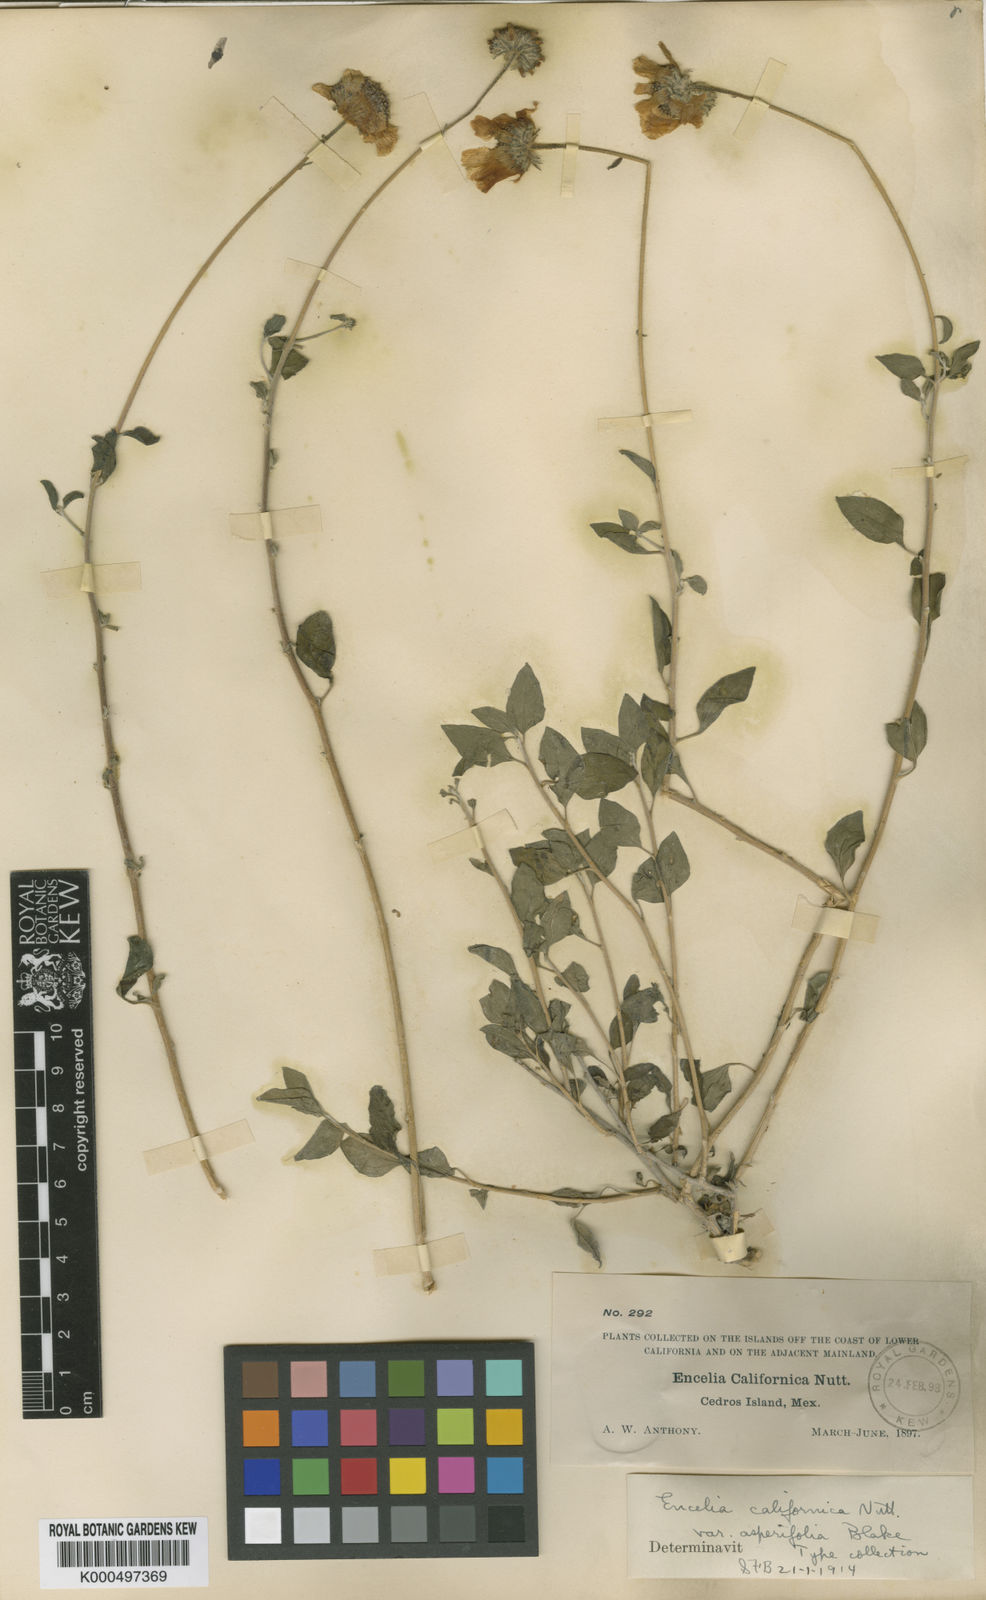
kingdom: Plantae
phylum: Tracheophyta
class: Magnoliopsida
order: Asterales
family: Asteraceae
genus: Encelia
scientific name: Encelia asperifolia
